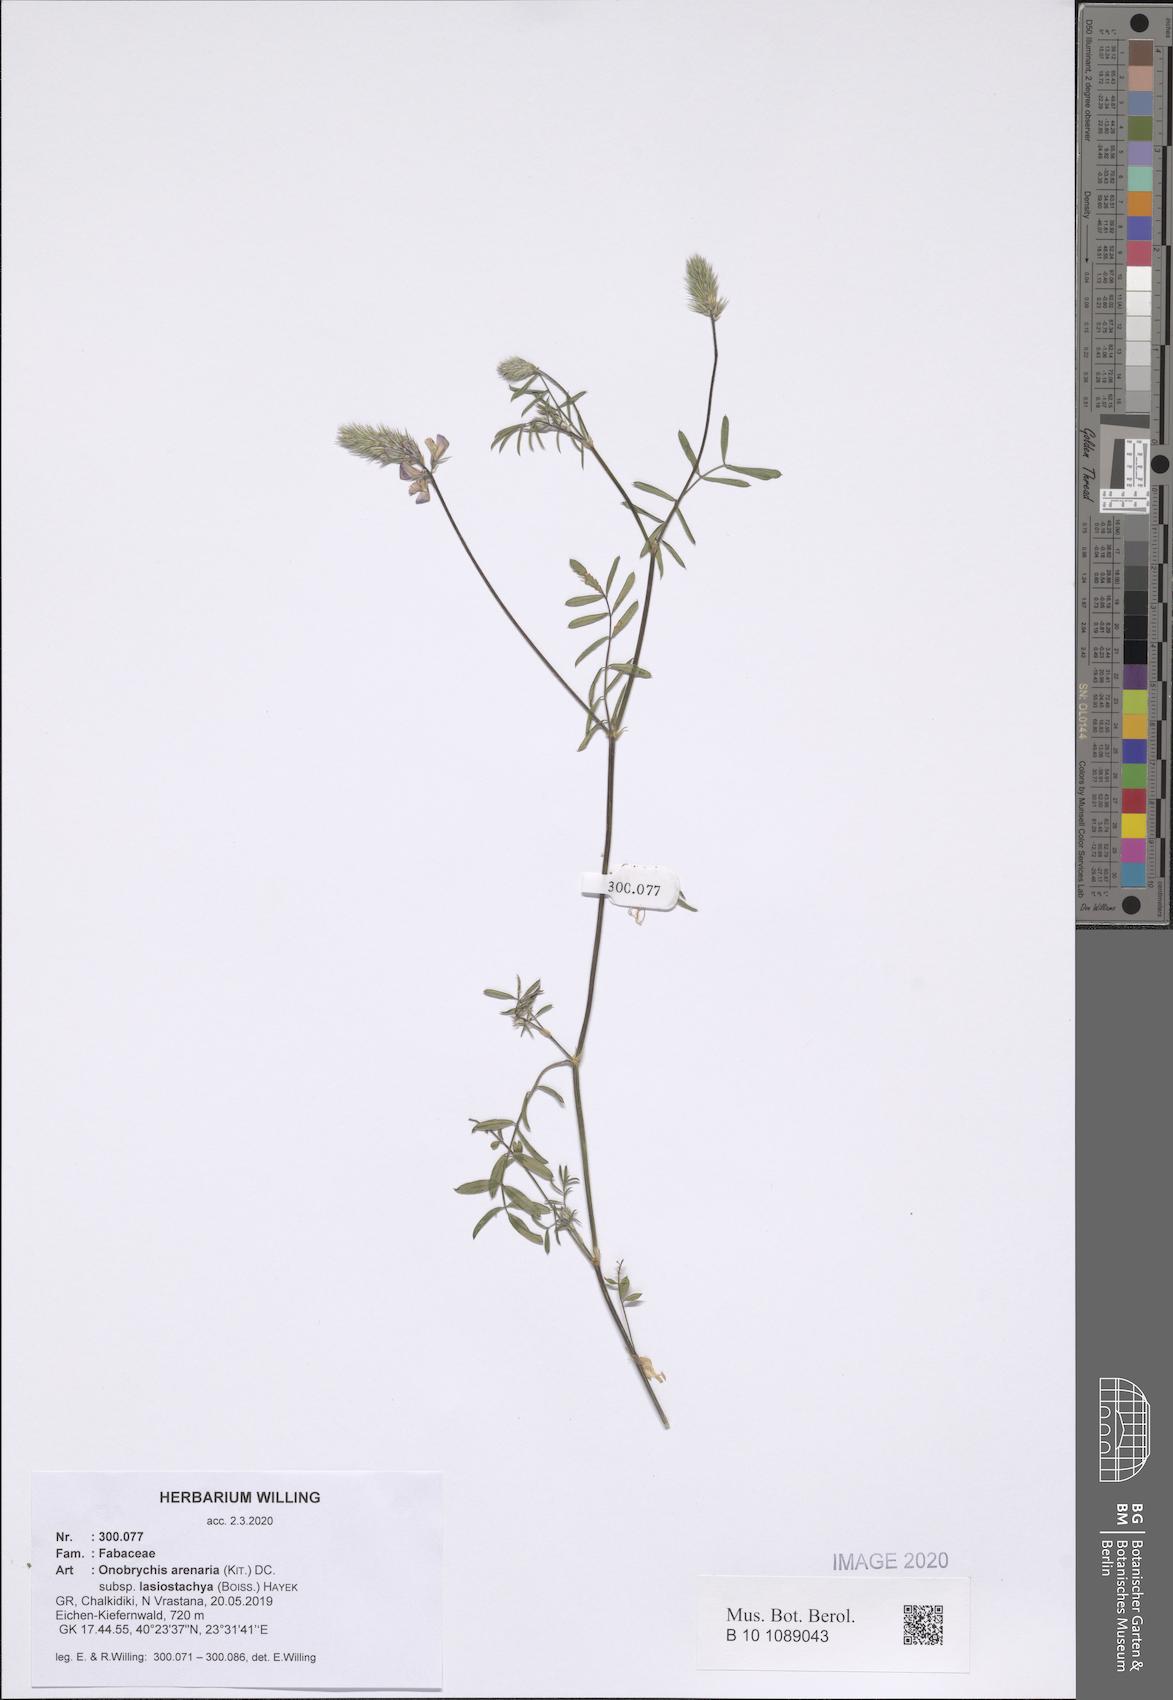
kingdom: Plantae
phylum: Tracheophyta
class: Magnoliopsida
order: Fabales
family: Fabaceae
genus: Onobrychis
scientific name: Onobrychis arenaria
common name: Sand esparcet
